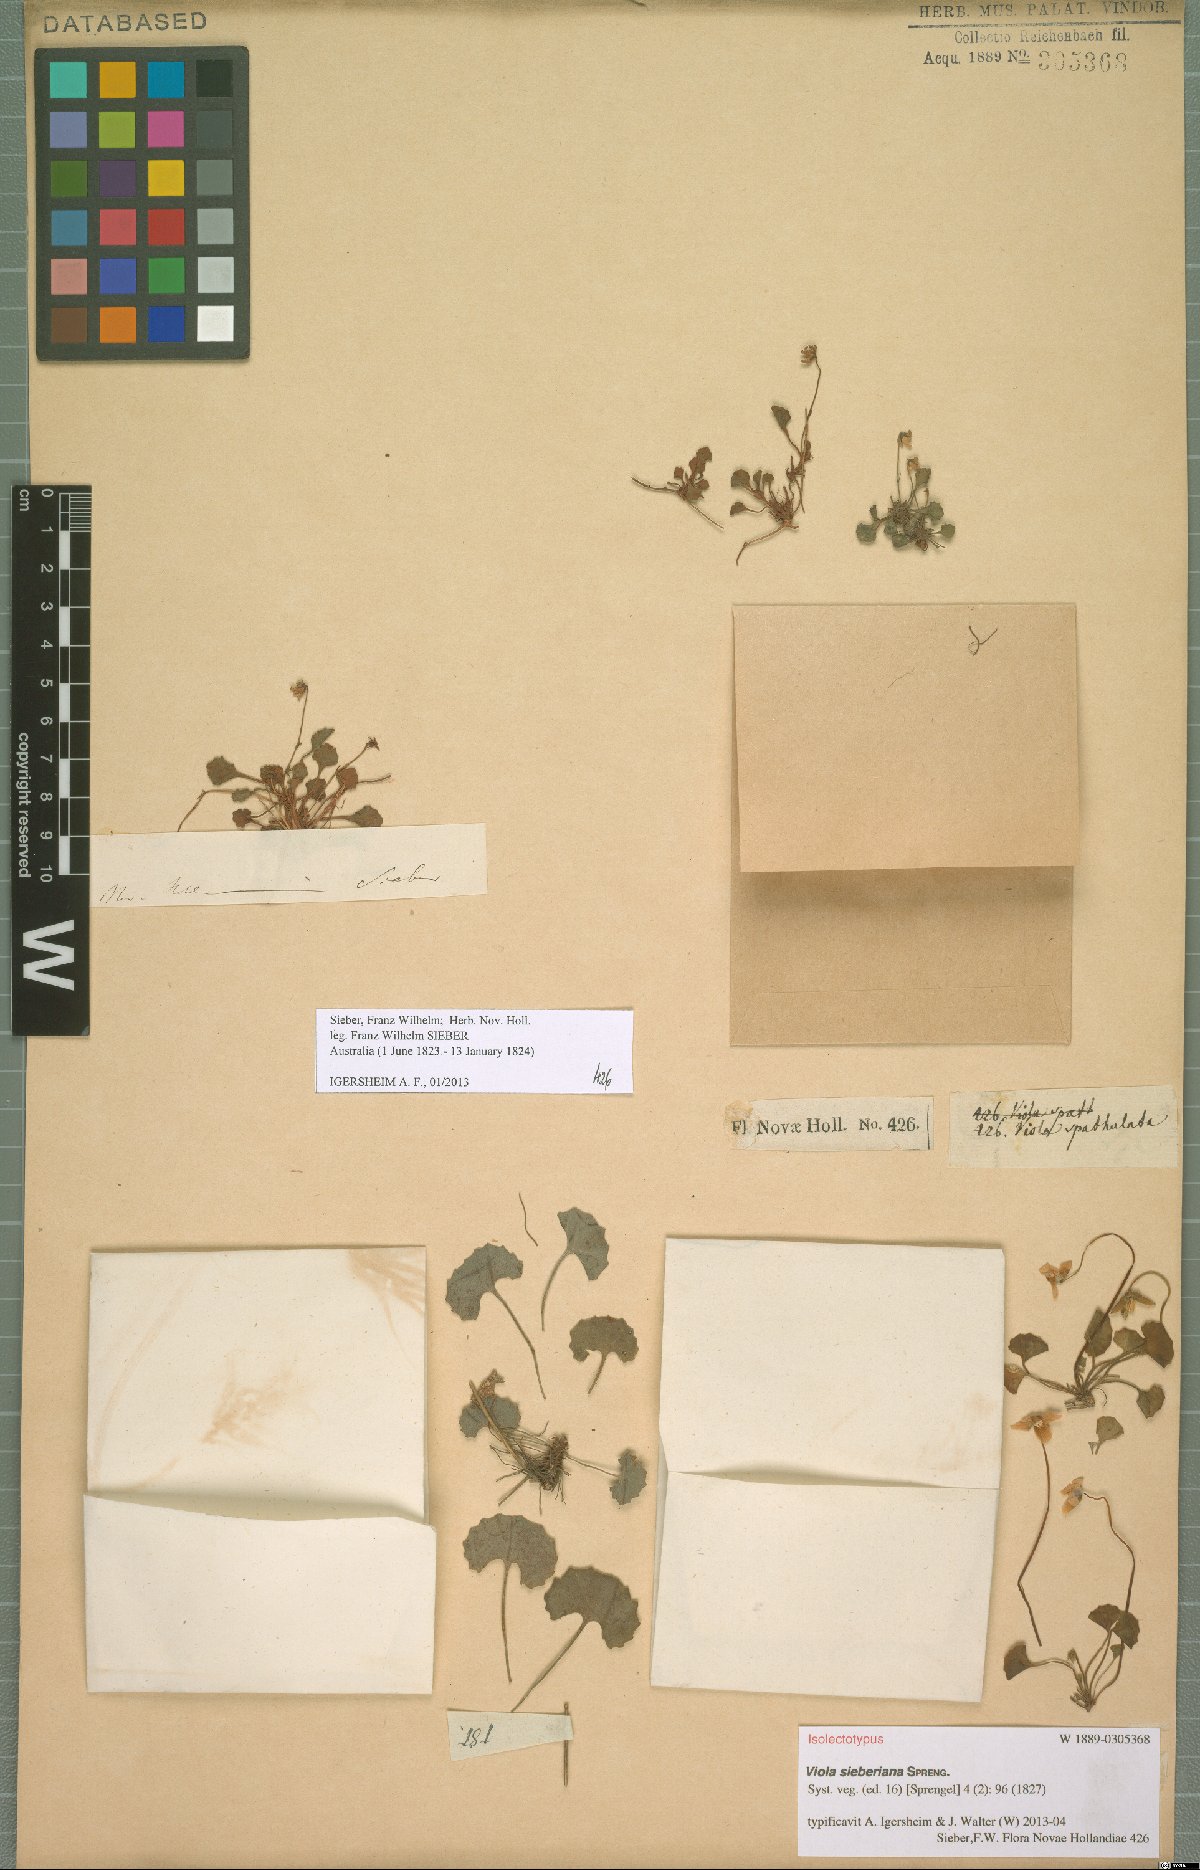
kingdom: Plantae
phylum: Tracheophyta
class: Magnoliopsida
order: Malpighiales
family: Violaceae
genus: Viola
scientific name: Viola sieberiana
